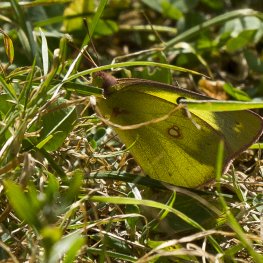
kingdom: Animalia
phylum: Arthropoda
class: Insecta
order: Lepidoptera
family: Pieridae
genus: Colias
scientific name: Colias philodice
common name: Clouded Sulphur
